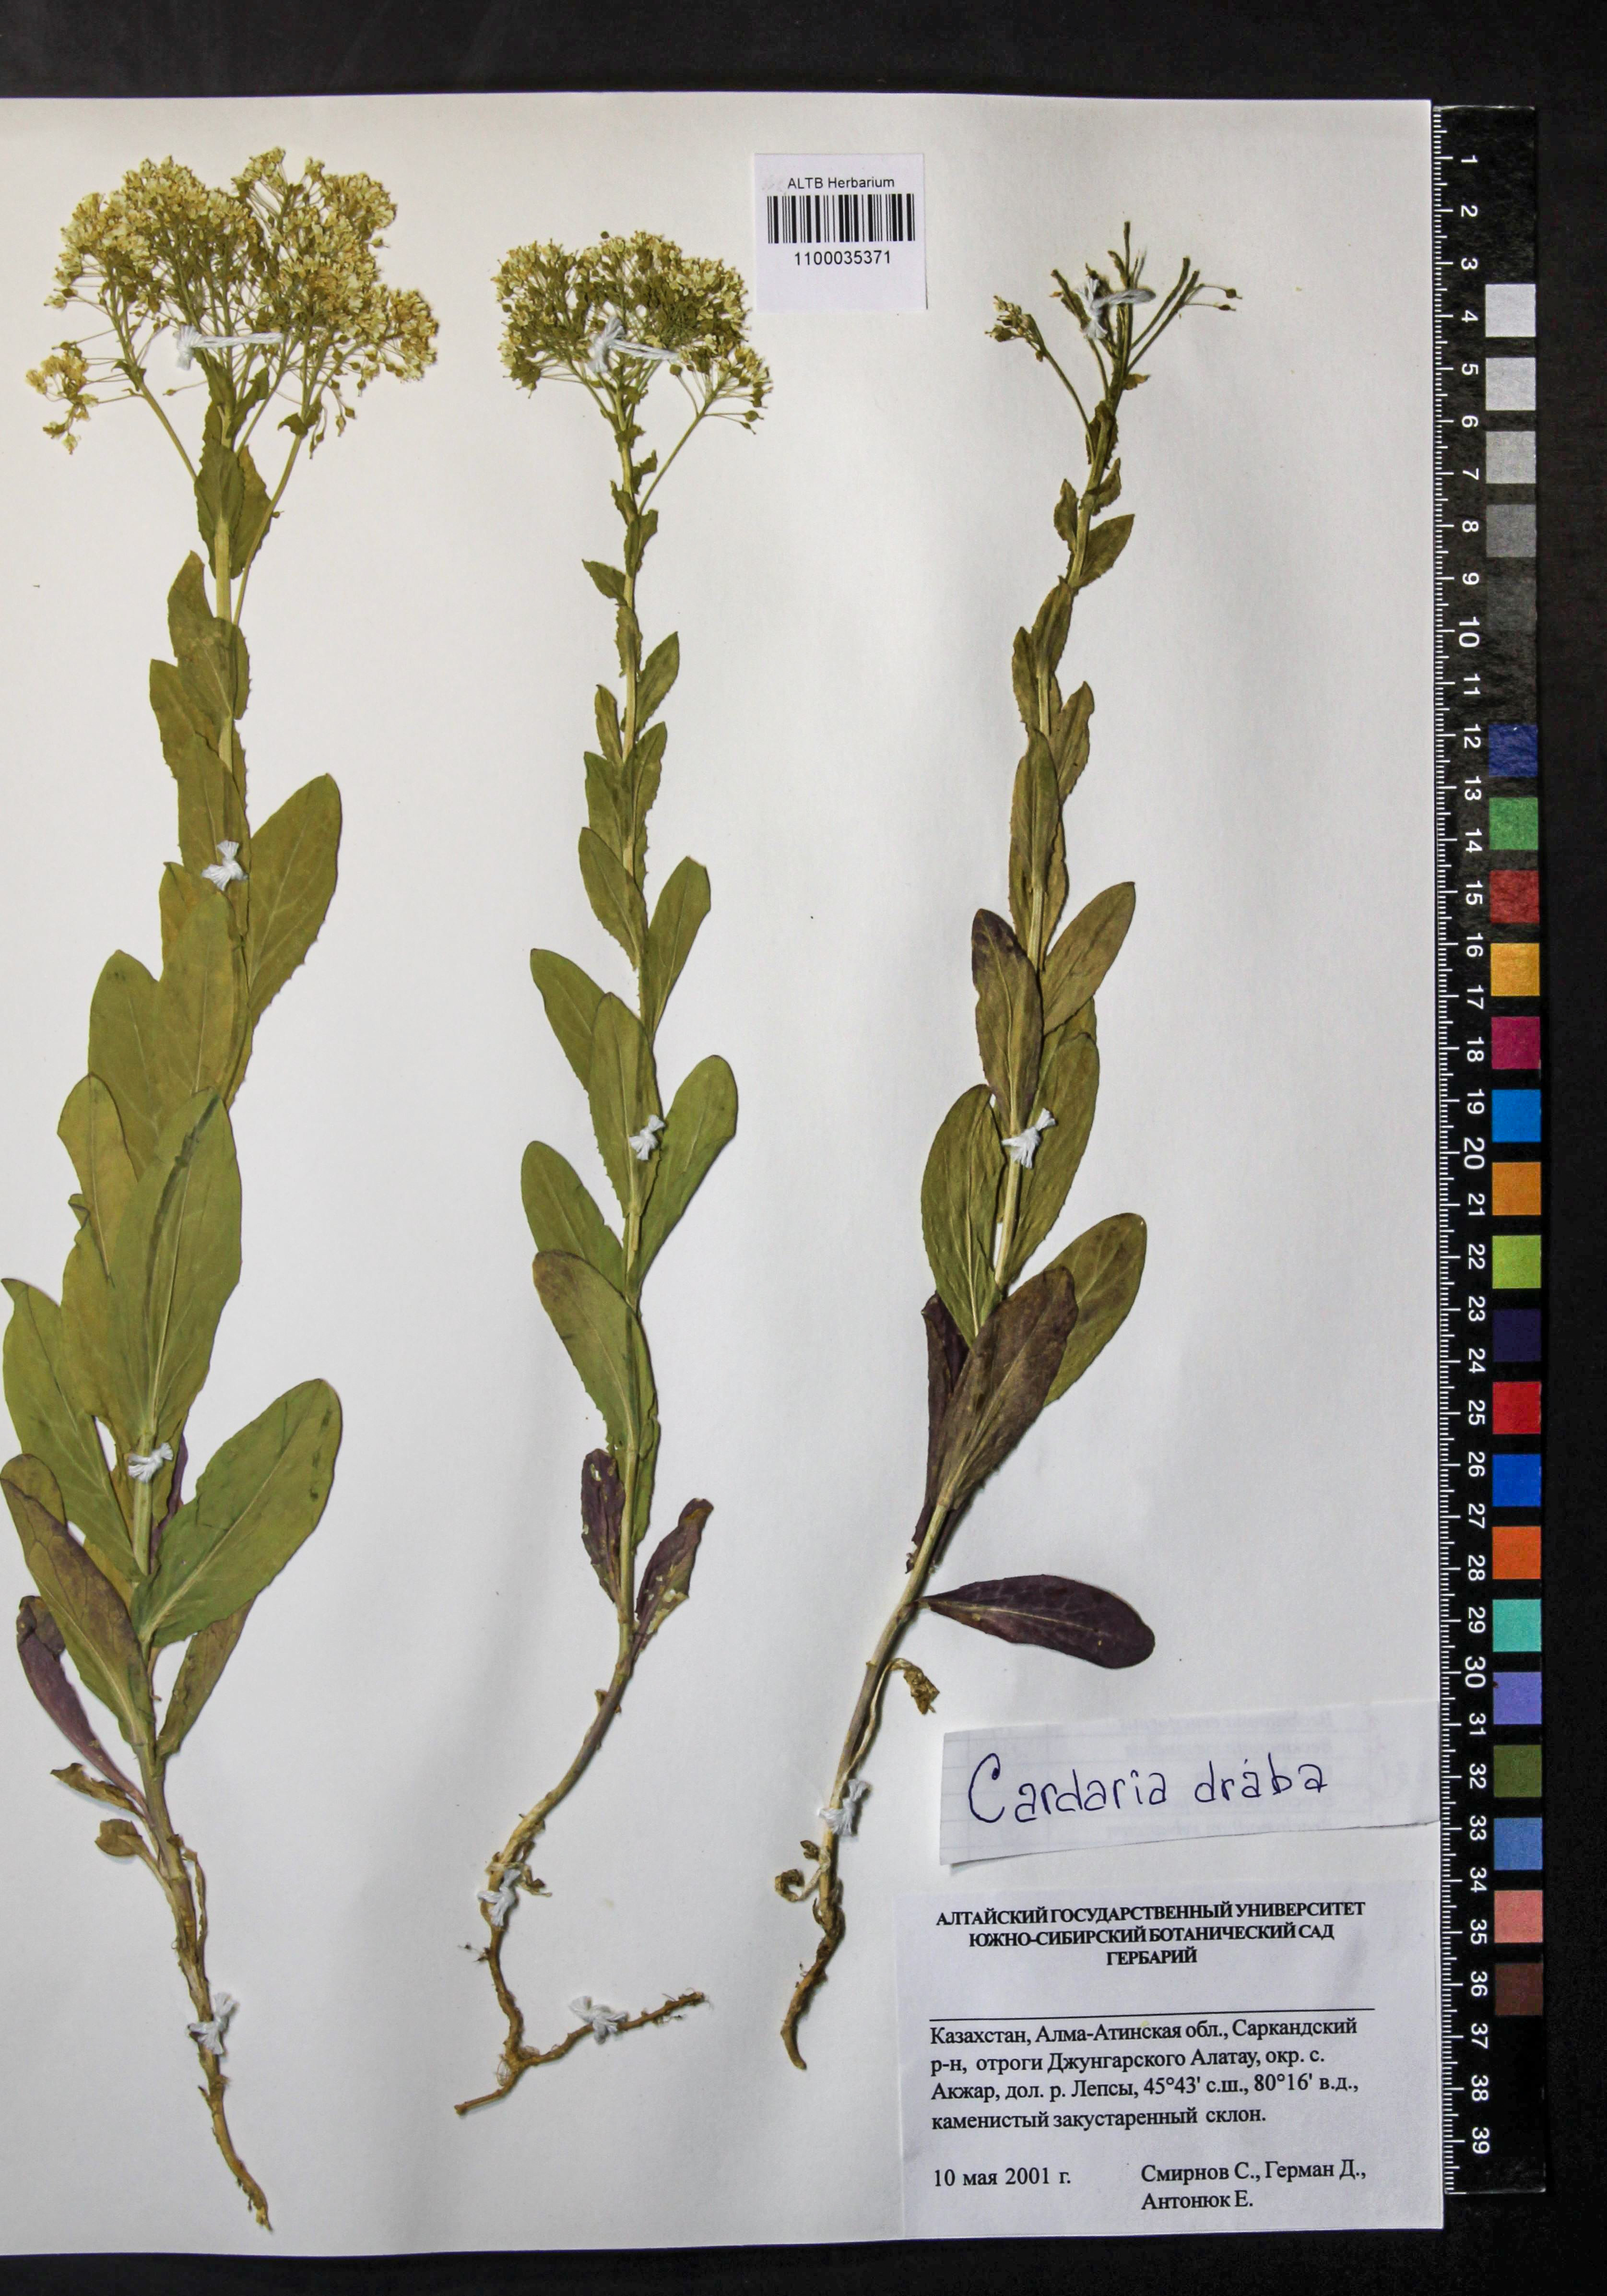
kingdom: Plantae
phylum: Tracheophyta
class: Magnoliopsida
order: Brassicales
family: Brassicaceae
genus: Lepidium
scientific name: Lepidium draba
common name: Hoary cress
